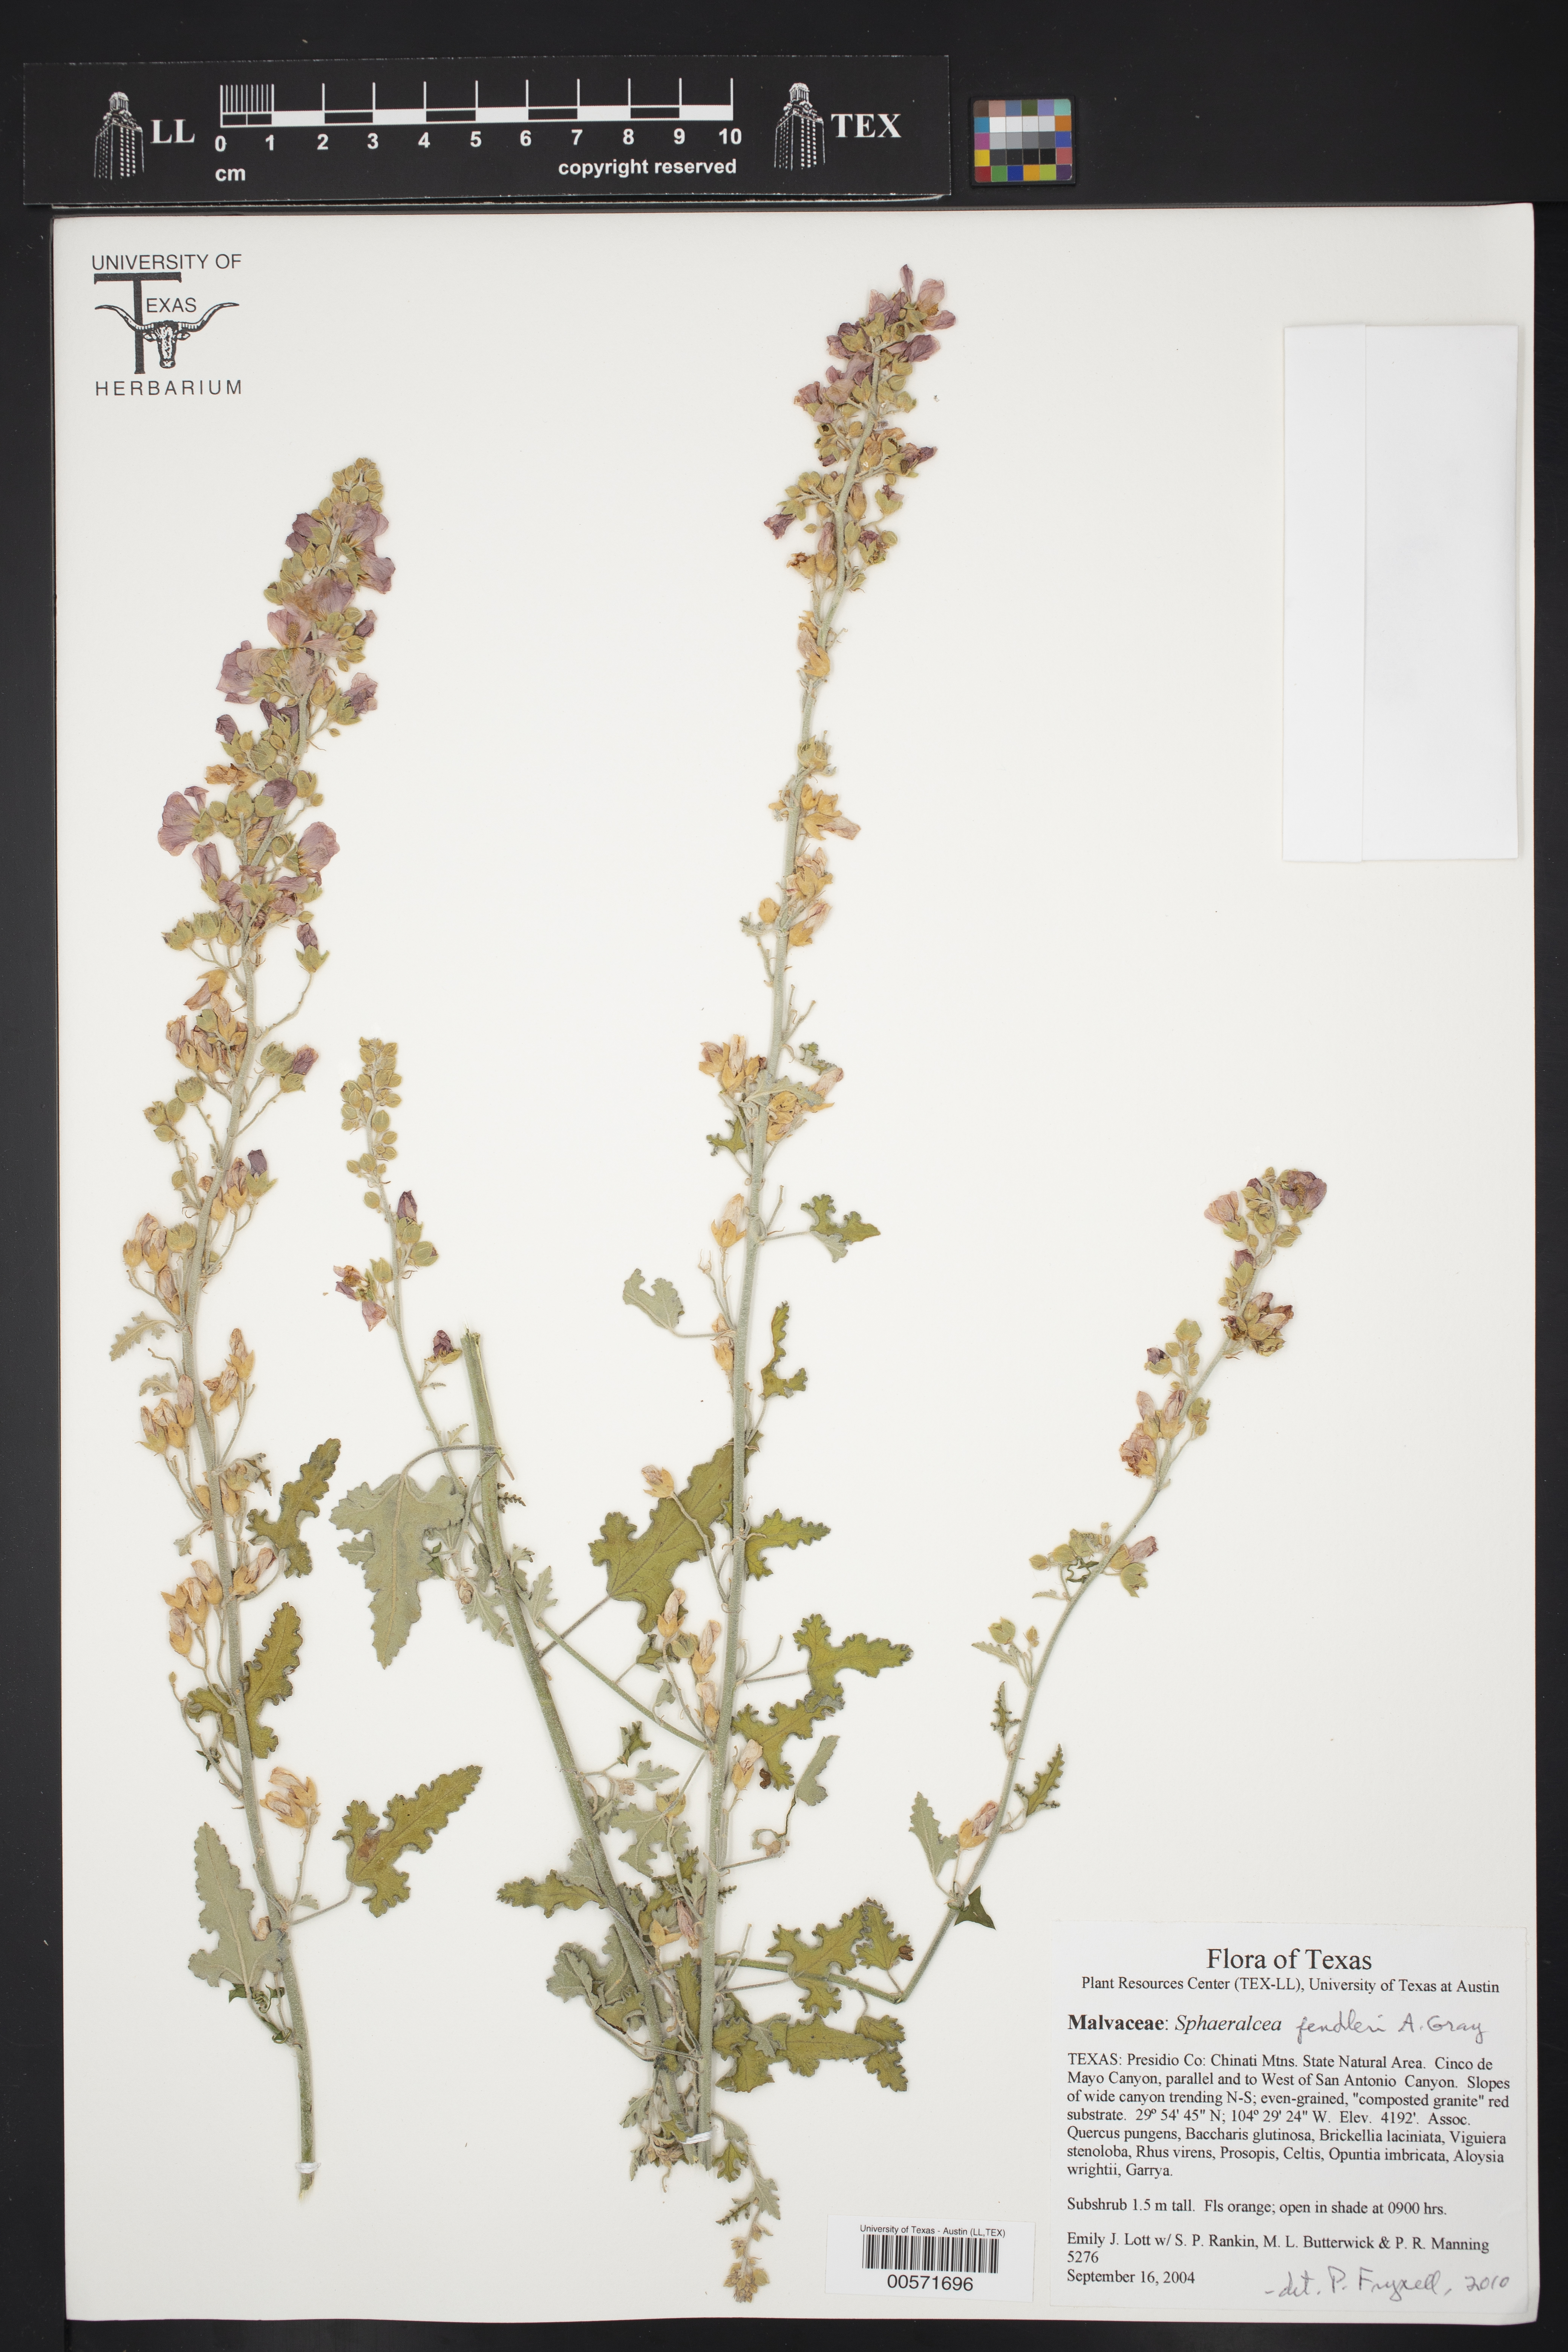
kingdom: Plantae
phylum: Tracheophyta
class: Magnoliopsida
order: Malvales
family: Malvaceae
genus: Sphaeralcea
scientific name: Sphaeralcea fendleri
